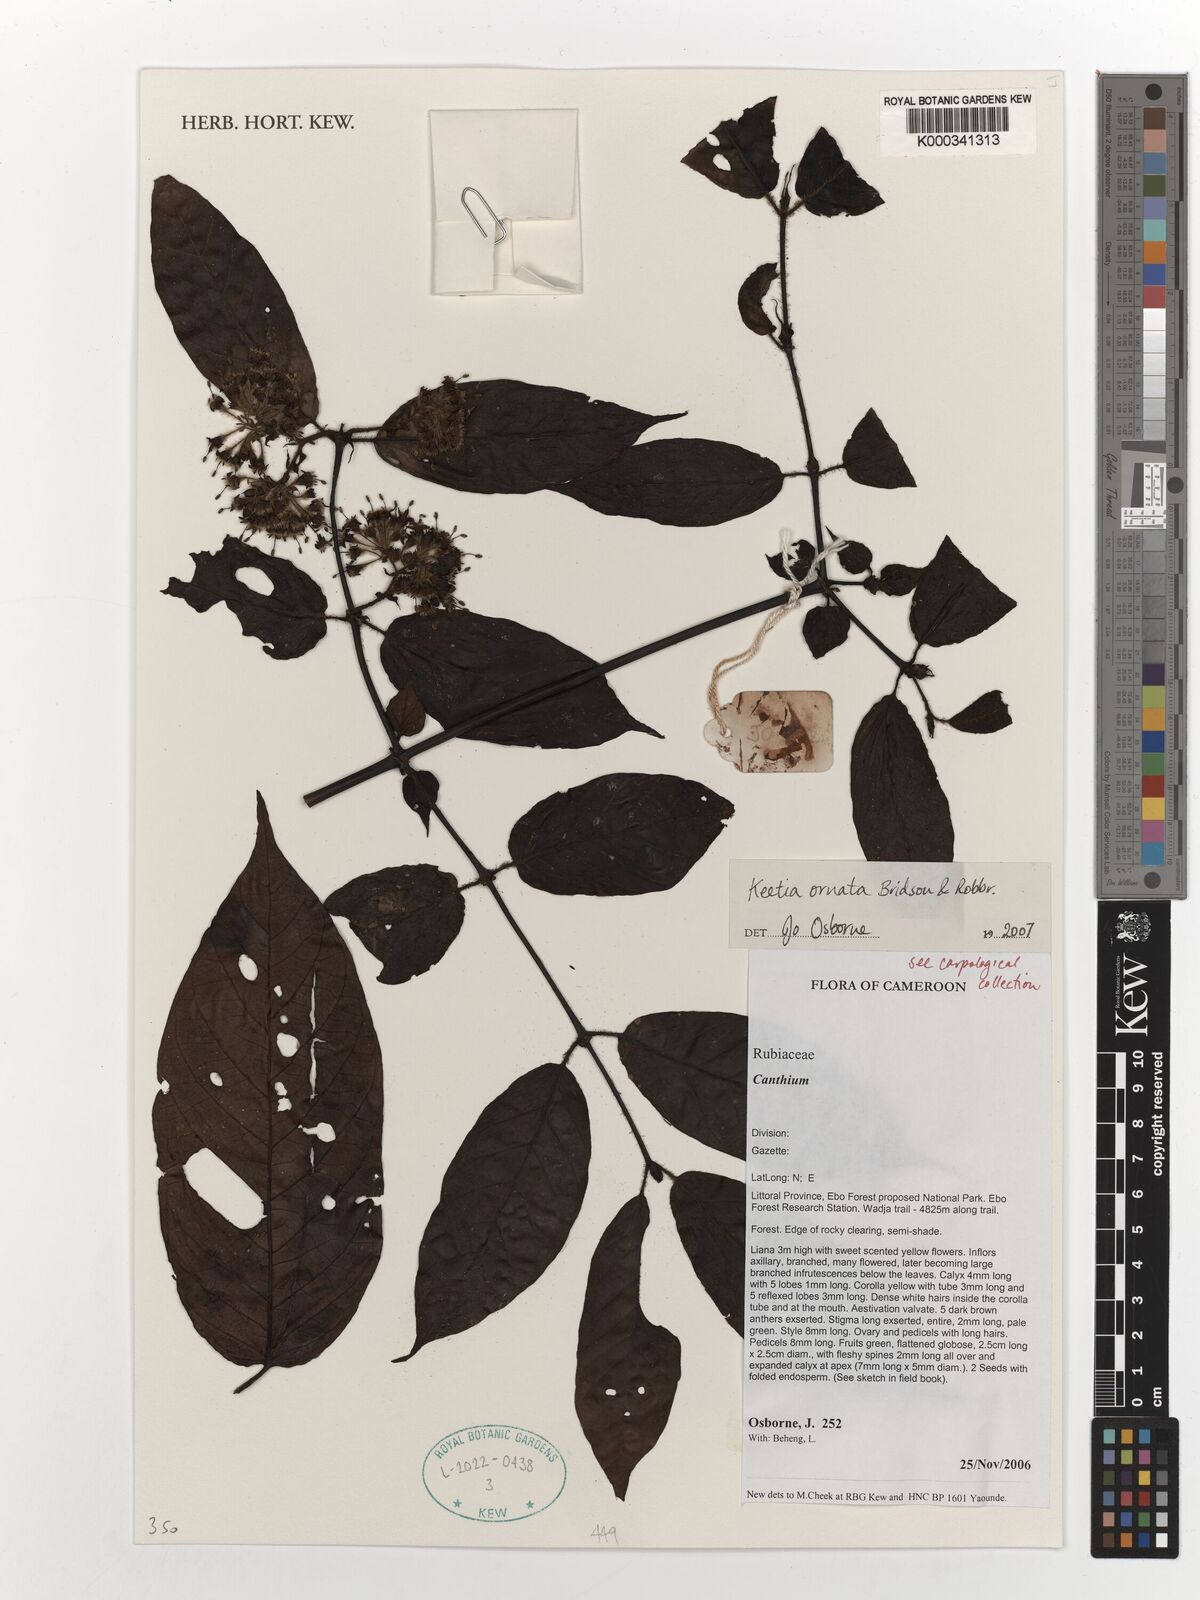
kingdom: Plantae
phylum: Tracheophyta
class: Magnoliopsida
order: Gentianales
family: Rubiaceae
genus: Keetia
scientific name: Keetia ornata
